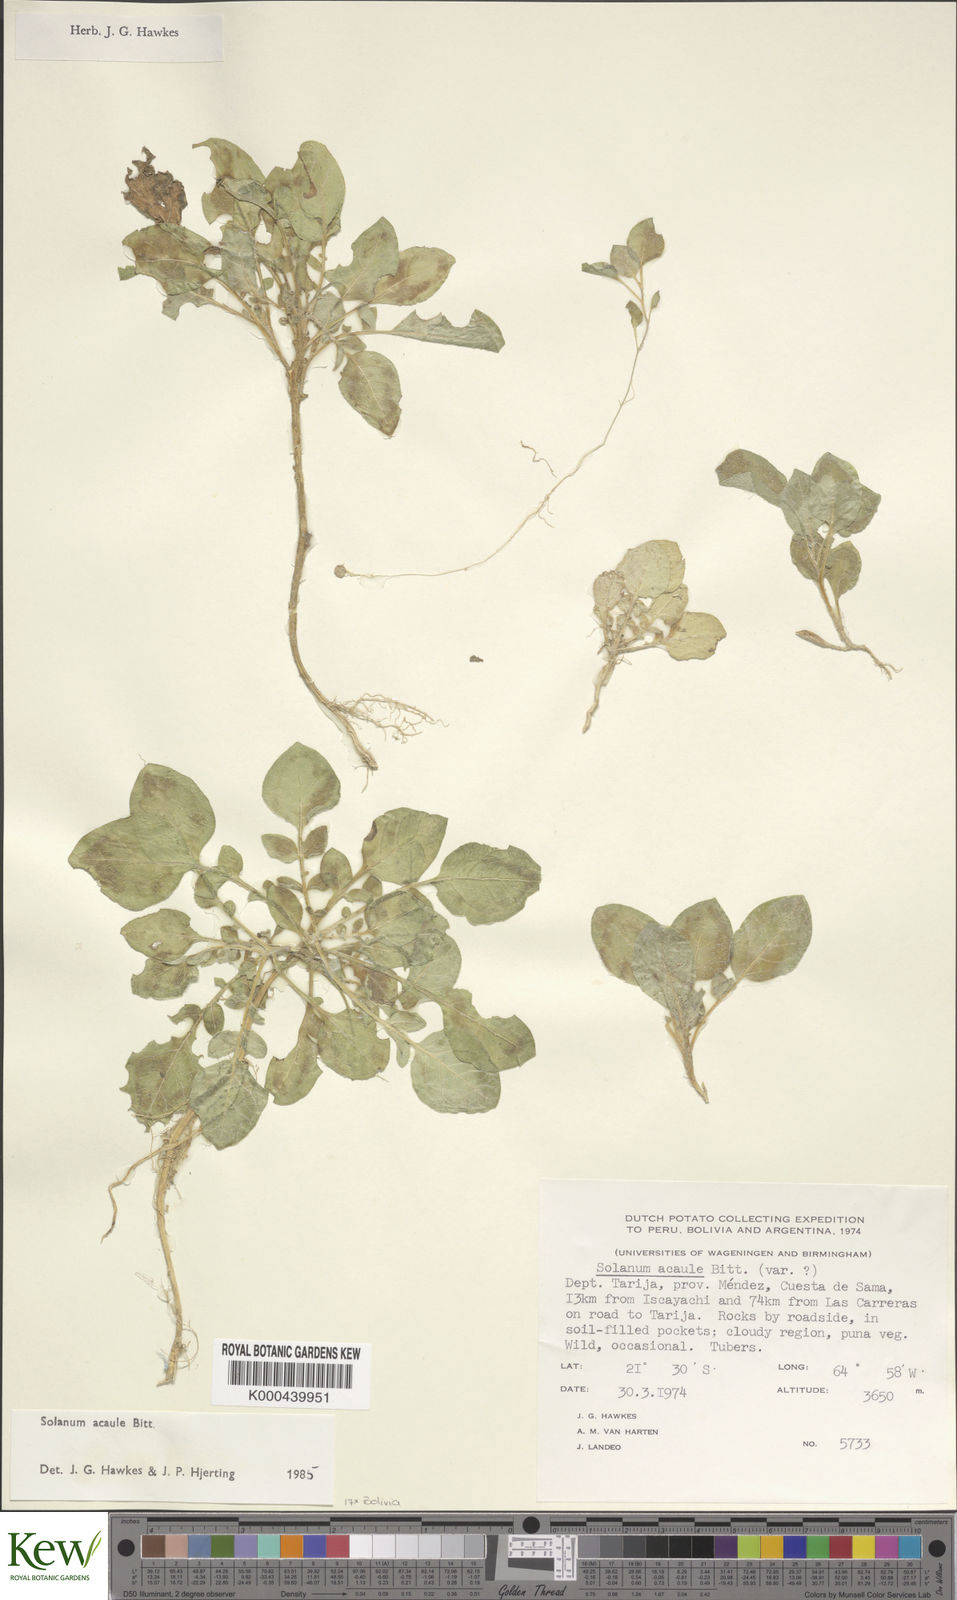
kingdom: Plantae
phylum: Tracheophyta
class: Magnoliopsida
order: Solanales
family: Solanaceae
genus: Solanum
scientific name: Solanum acaule
